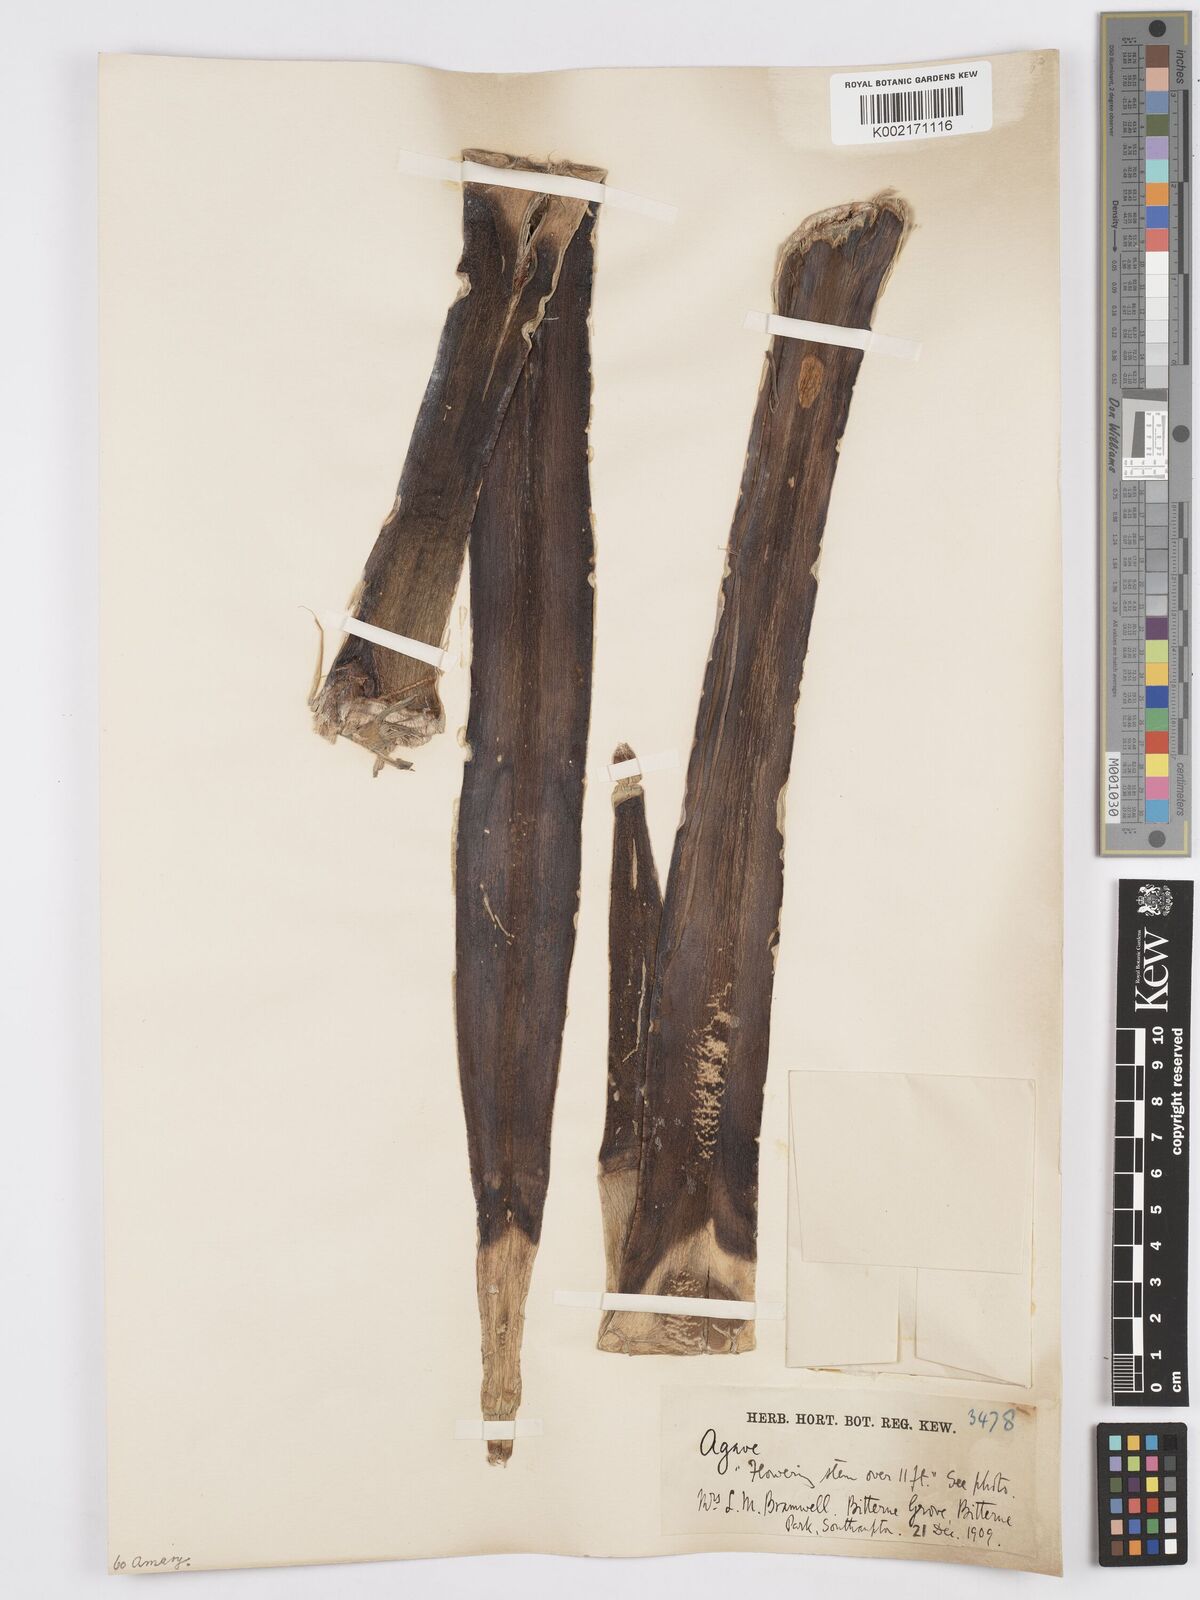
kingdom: Plantae
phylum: Tracheophyta
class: Liliopsida
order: Asparagales
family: Asparagaceae
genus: Agave
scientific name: Agave
